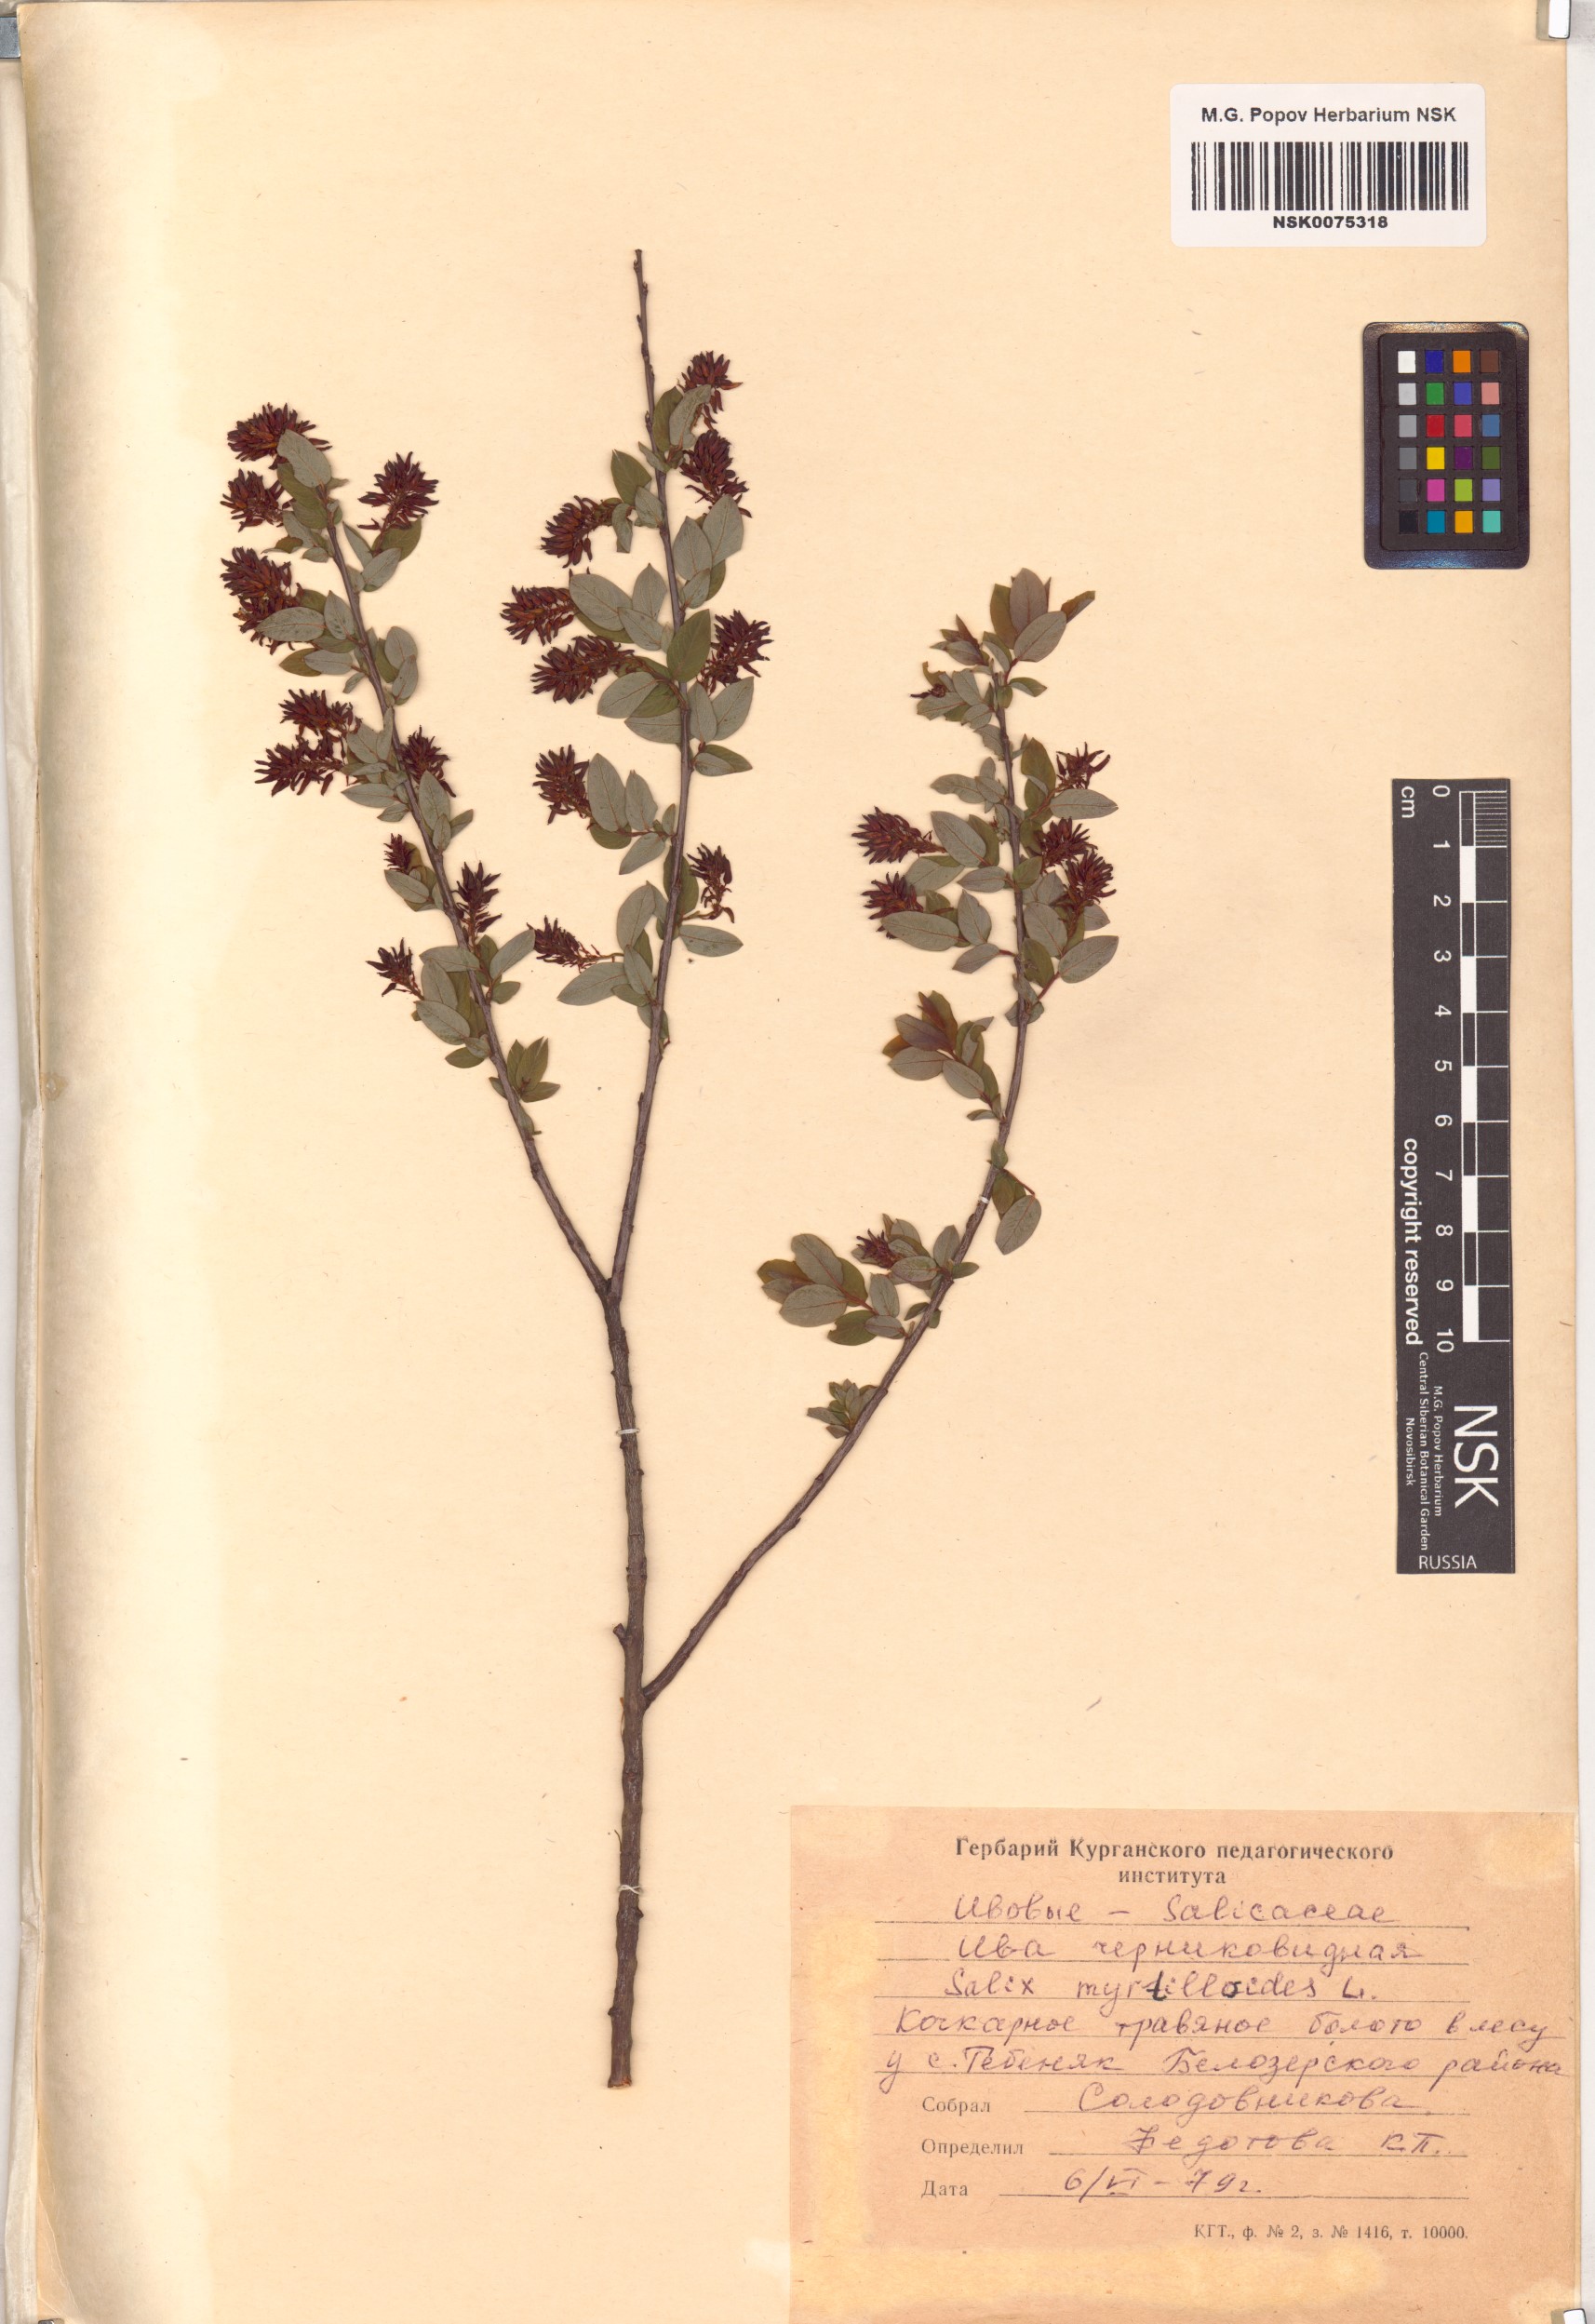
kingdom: Plantae
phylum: Tracheophyta
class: Magnoliopsida
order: Malpighiales
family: Salicaceae
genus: Salix
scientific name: Salix myrtilloides
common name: Myrtle-leaved willow
